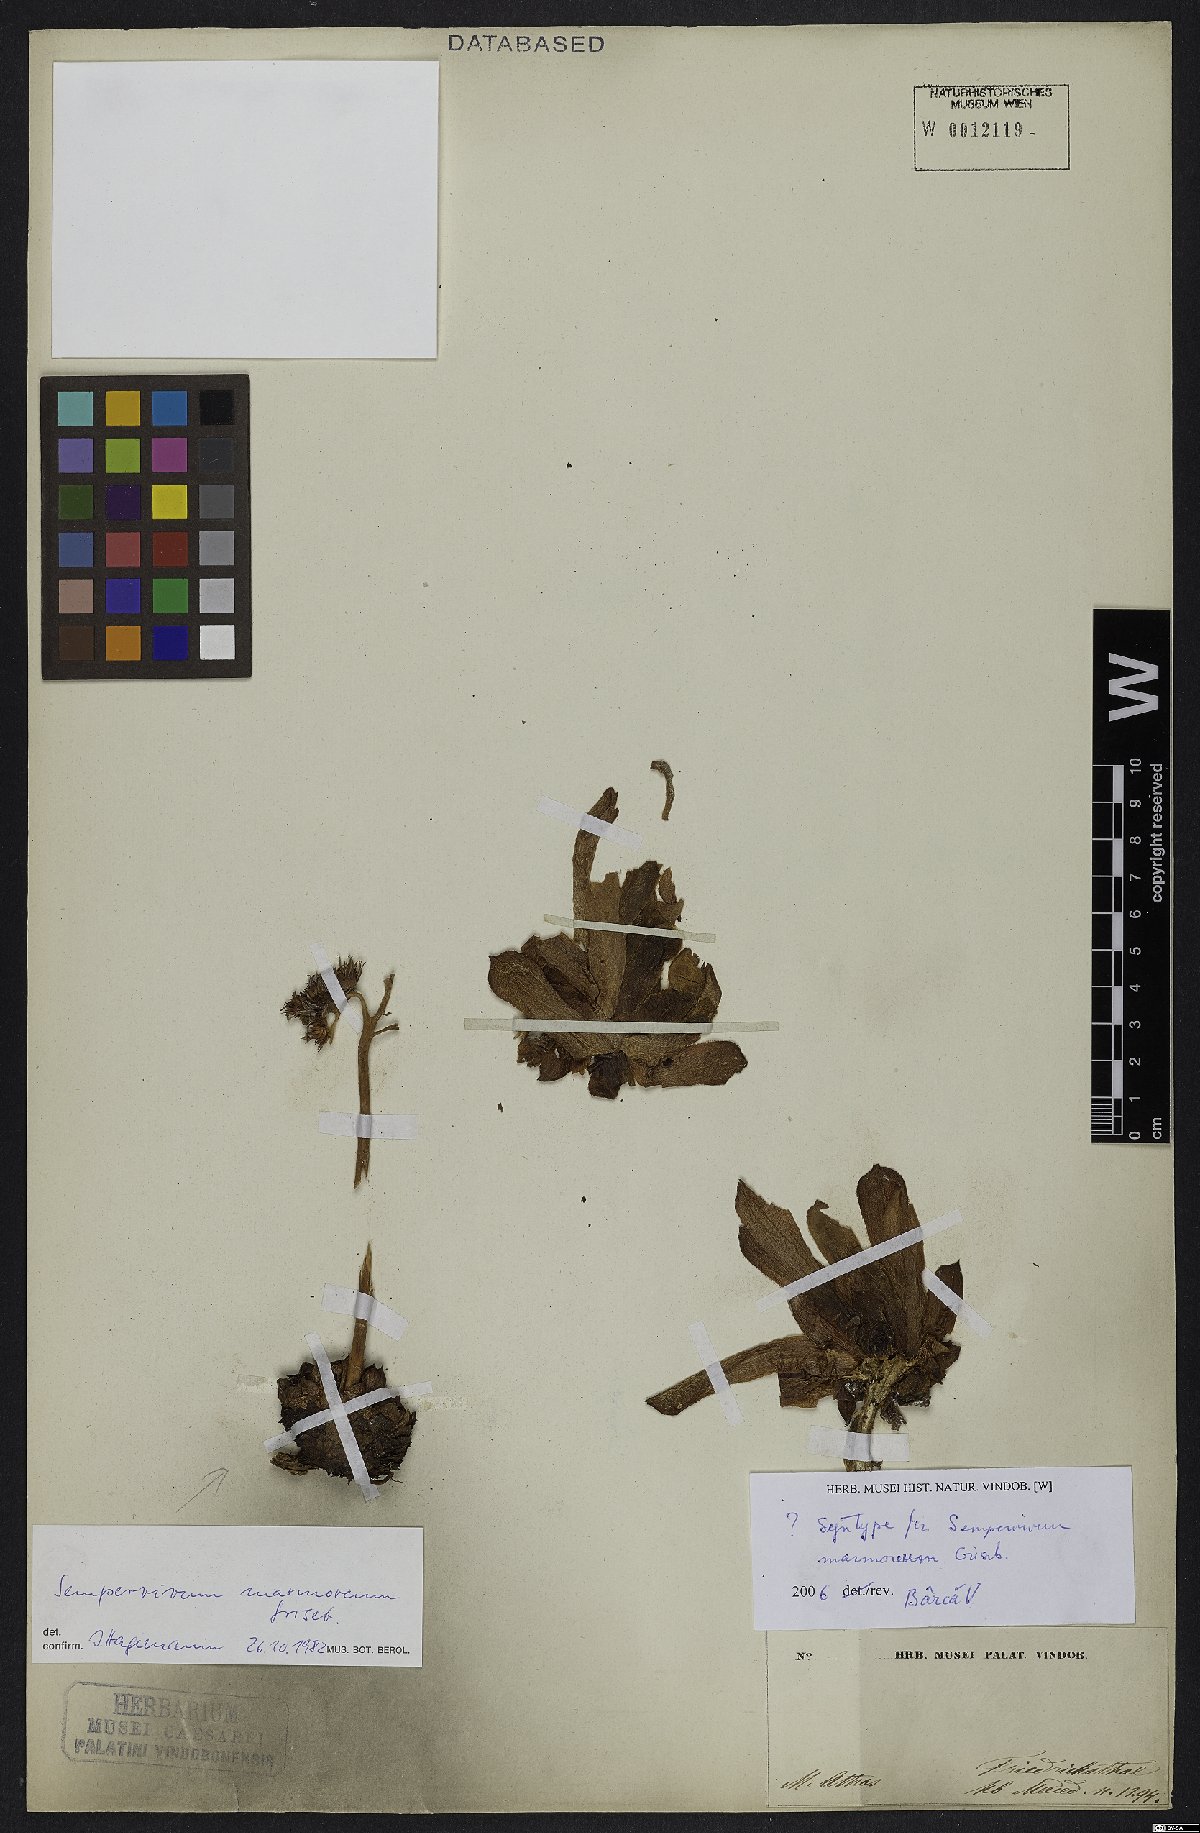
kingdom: Plantae
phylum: Tracheophyta
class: Magnoliopsida
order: Saxifragales
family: Crassulaceae
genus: Sempervivum
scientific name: Sempervivum marmoreum
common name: Houseleek
